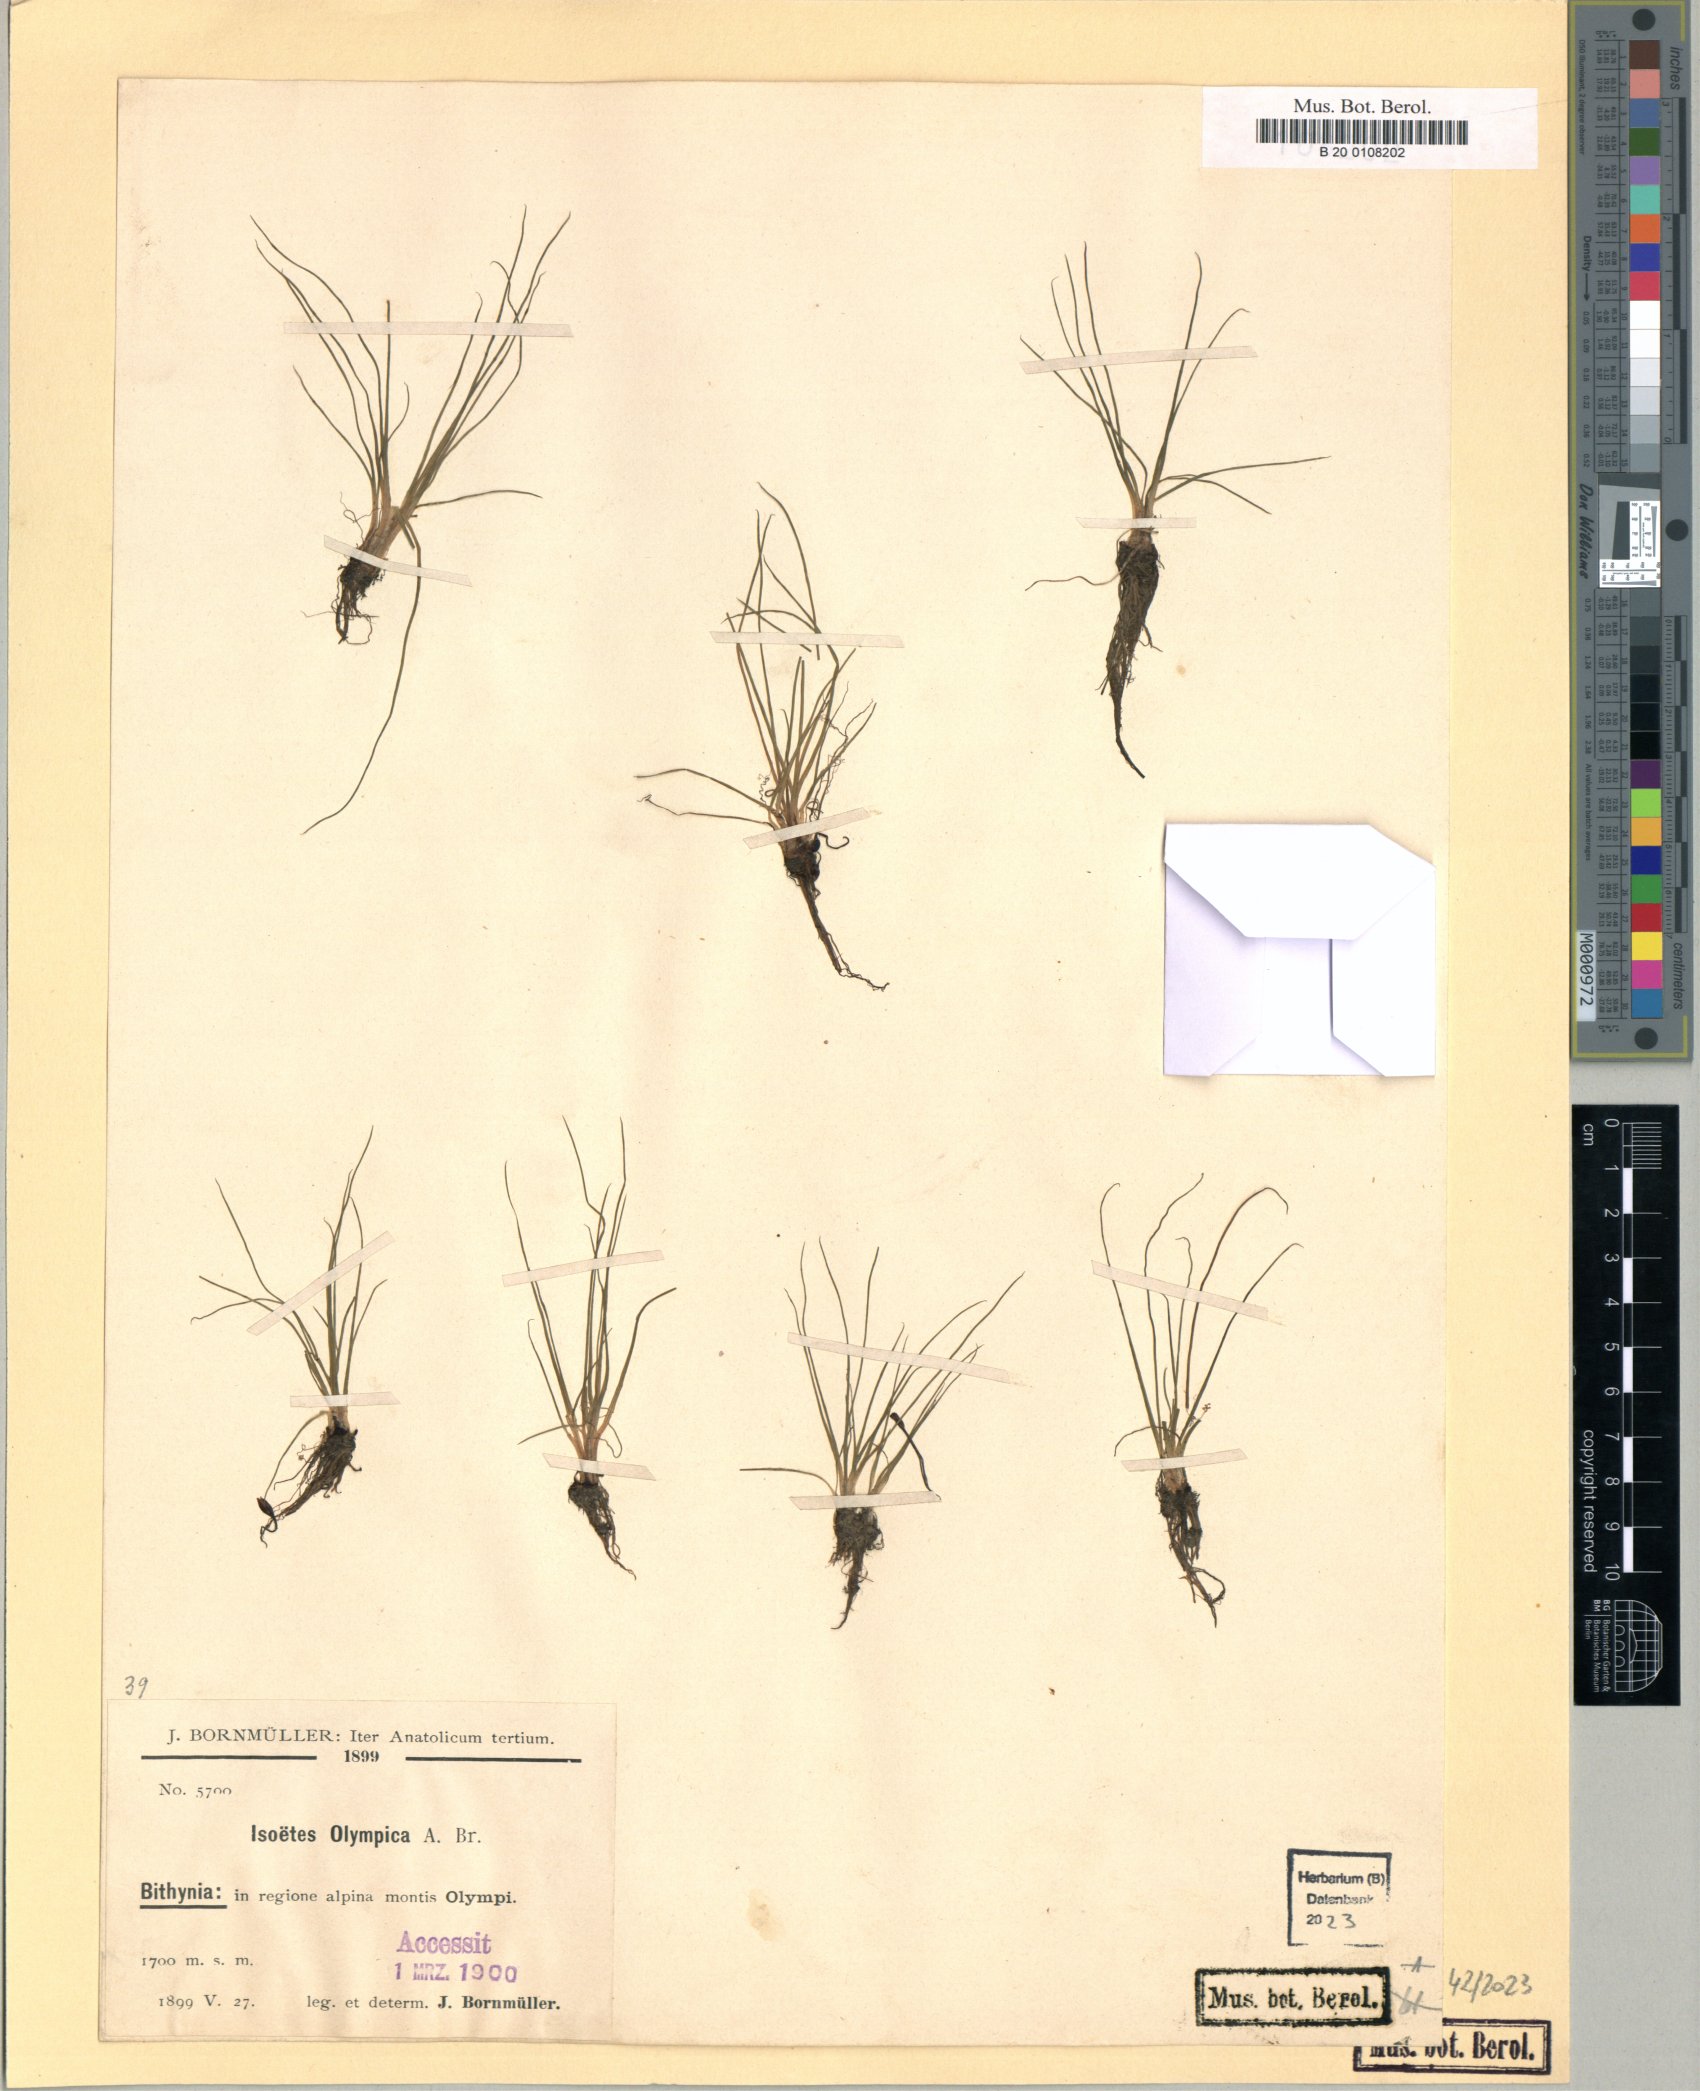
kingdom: Plantae
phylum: Tracheophyta
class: Lycopodiopsida
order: Isoetales
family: Isoetaceae
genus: Isoetes
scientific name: Isoetes olympica
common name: Olympic quillwort
